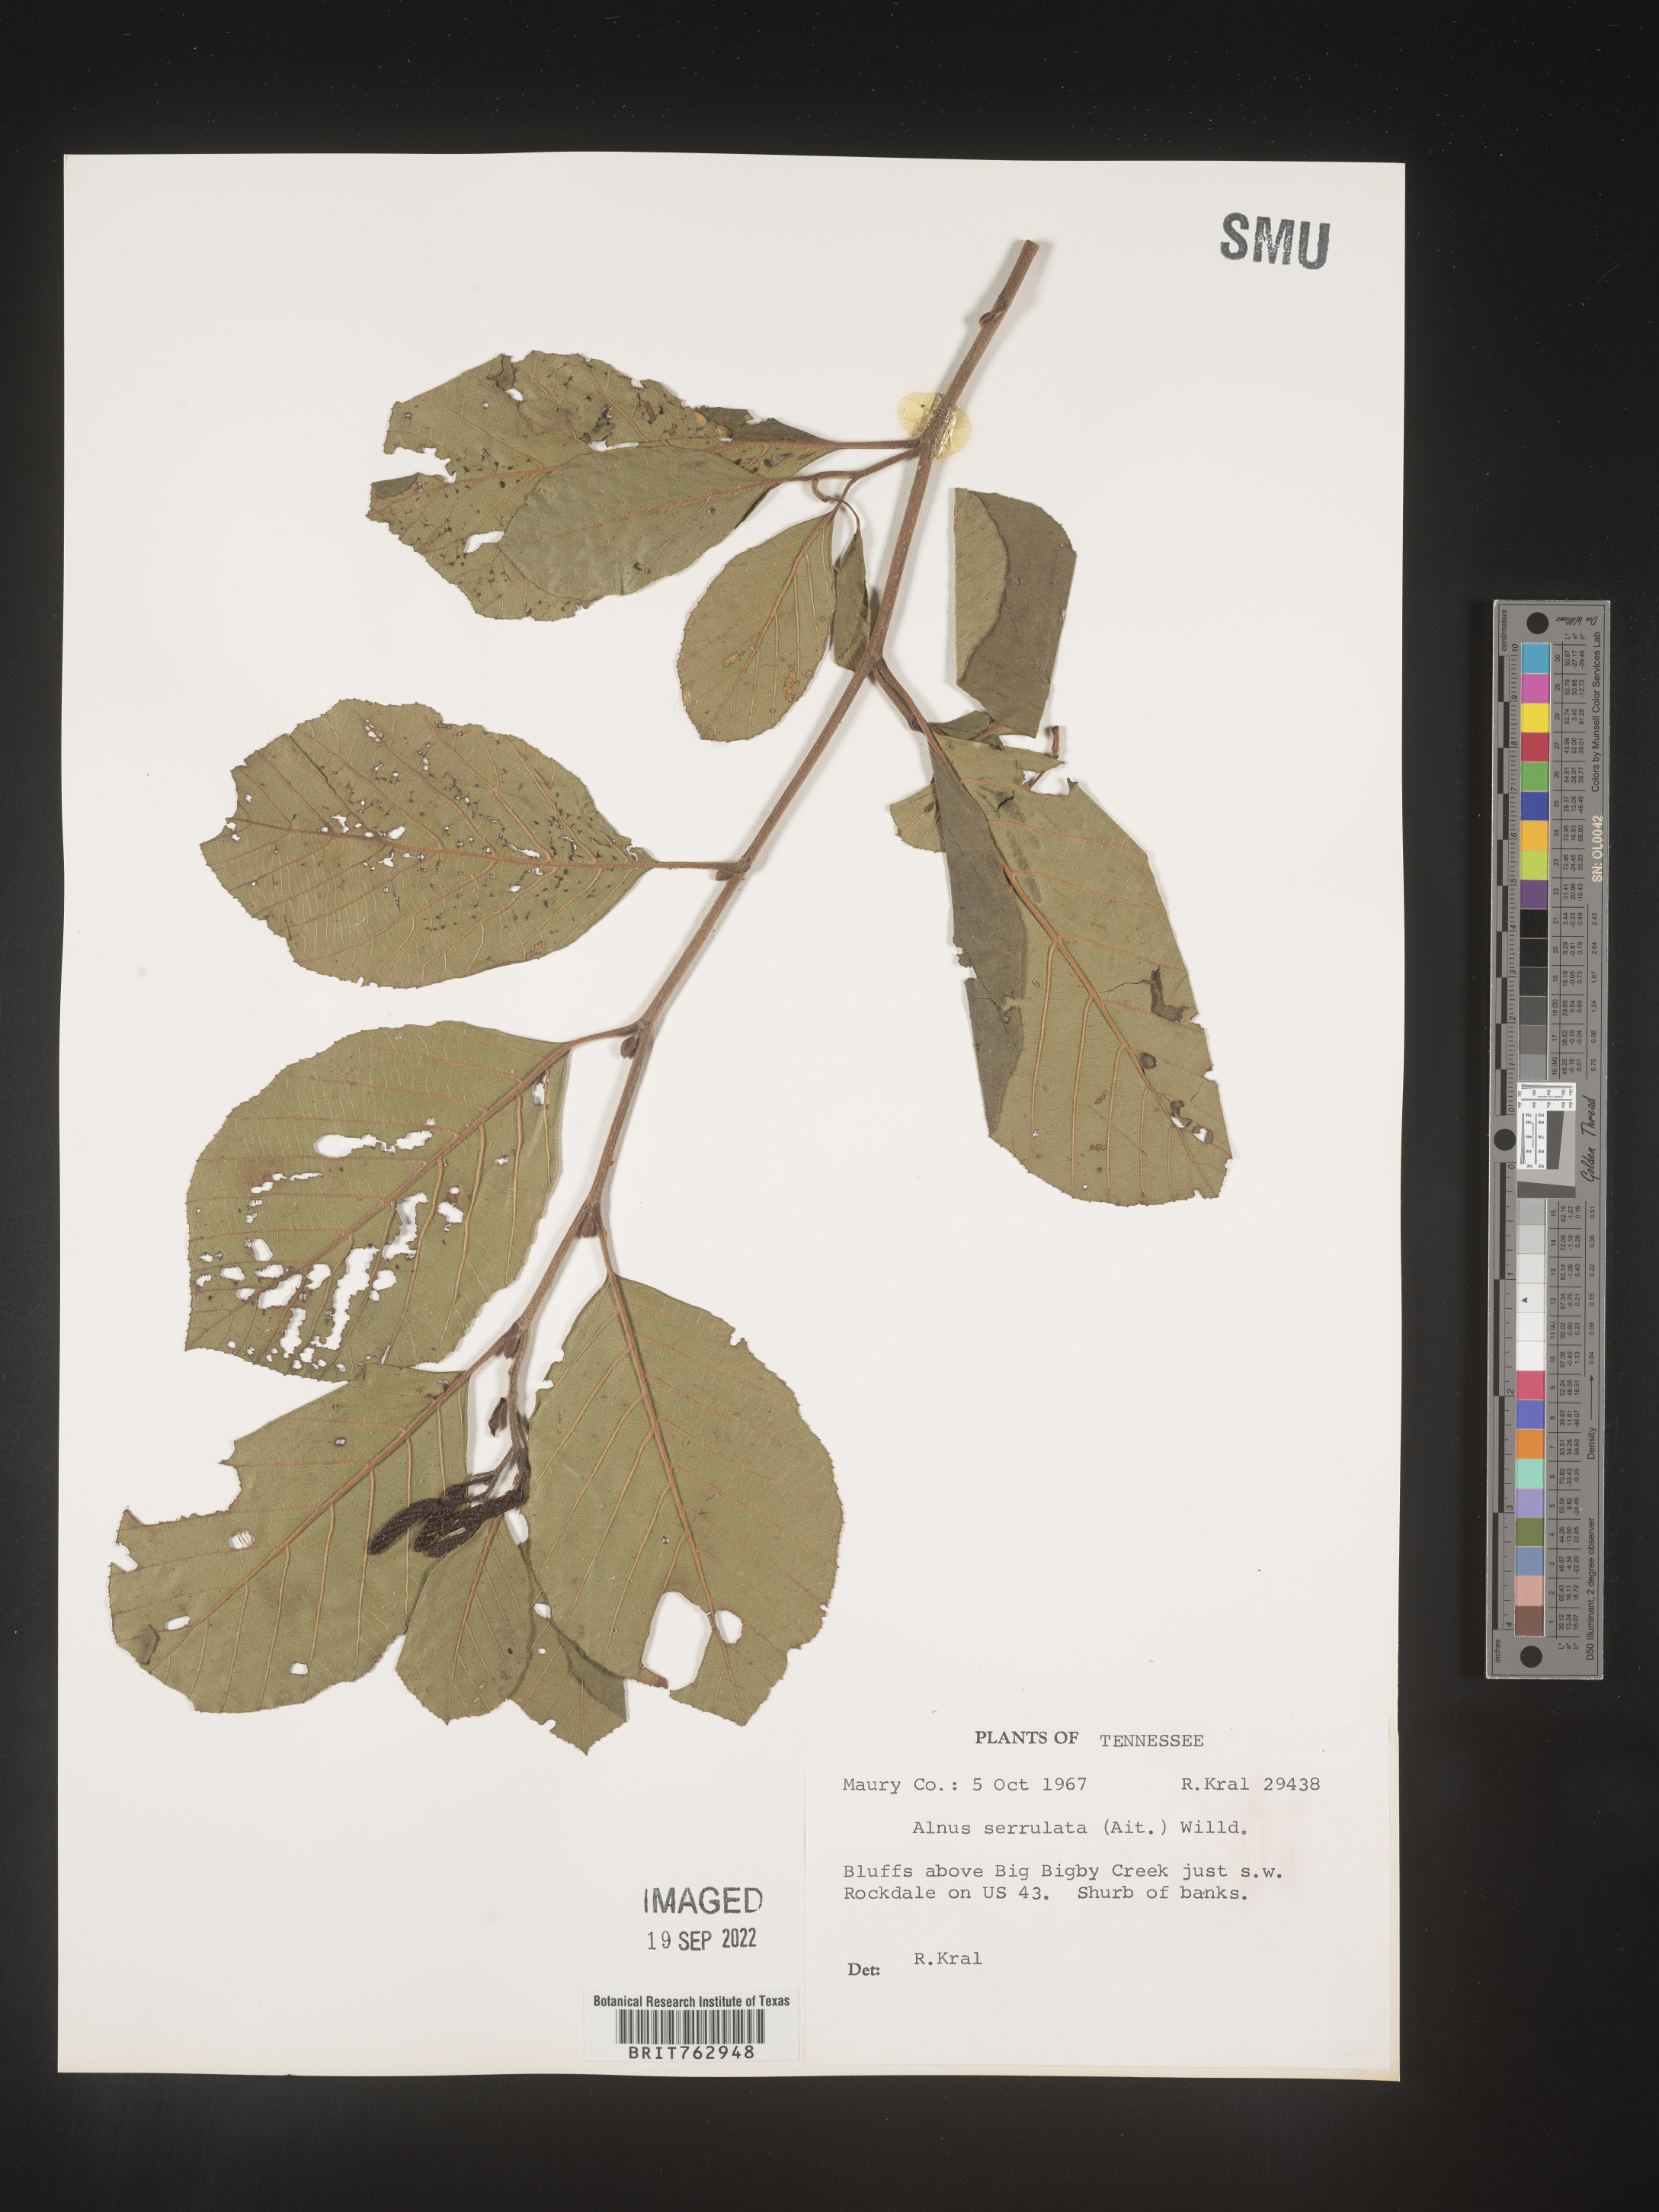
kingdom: Plantae
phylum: Tracheophyta
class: Magnoliopsida
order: Fagales
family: Betulaceae
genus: Alnus
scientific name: Alnus serrulata
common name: Hazel alder
